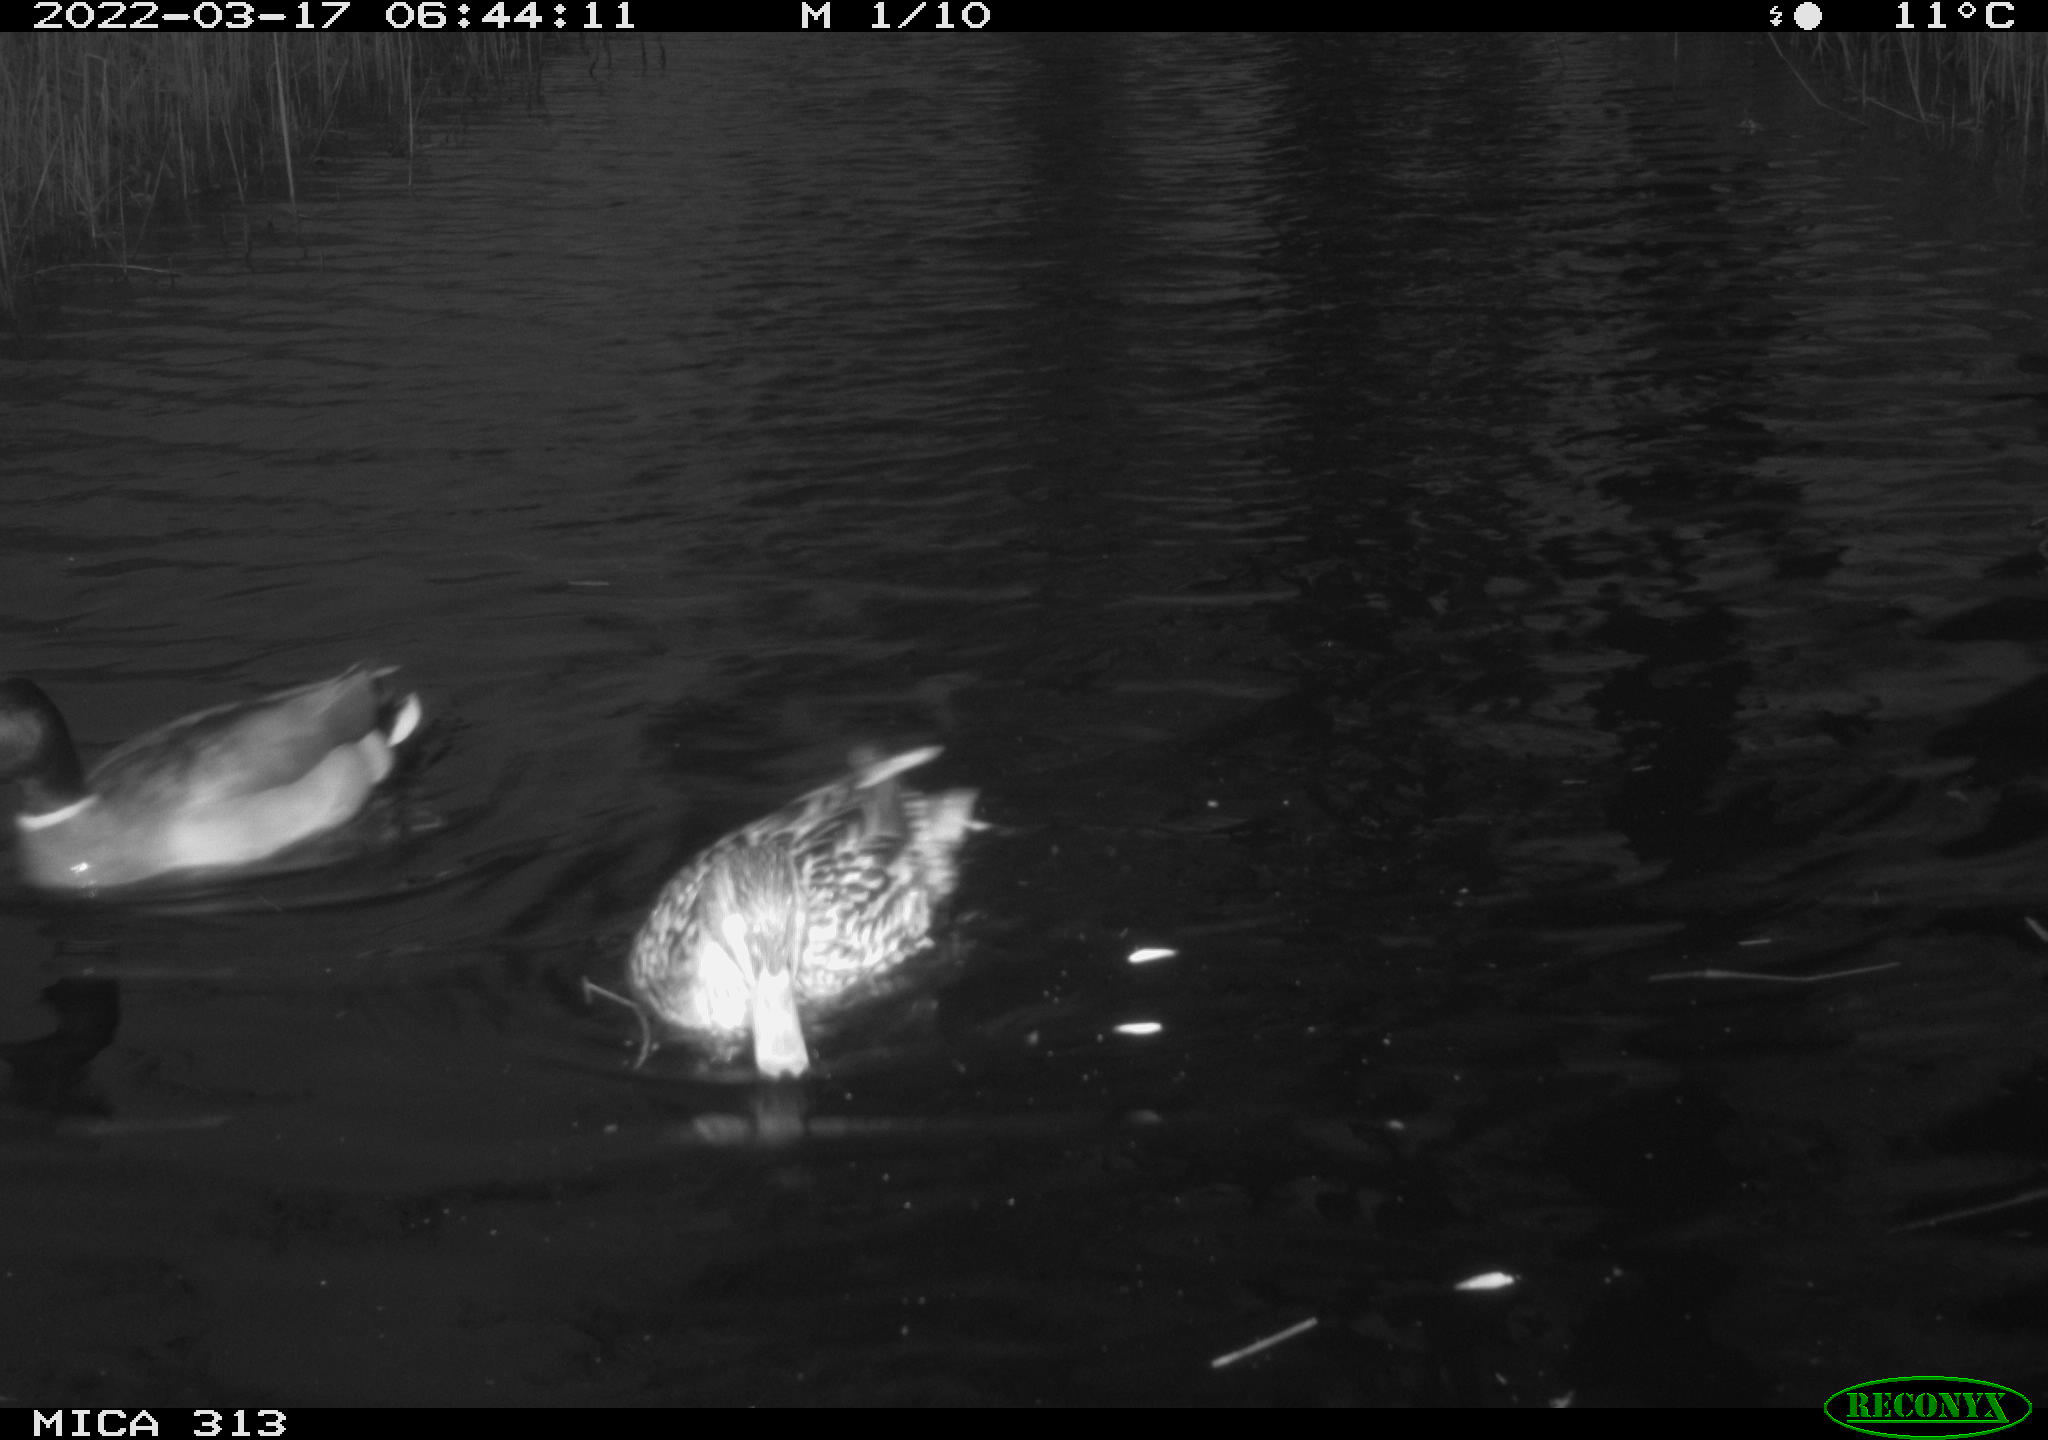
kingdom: Animalia
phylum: Chordata
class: Aves
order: Anseriformes
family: Anatidae
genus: Mareca
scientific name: Mareca strepera
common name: Gadwall
